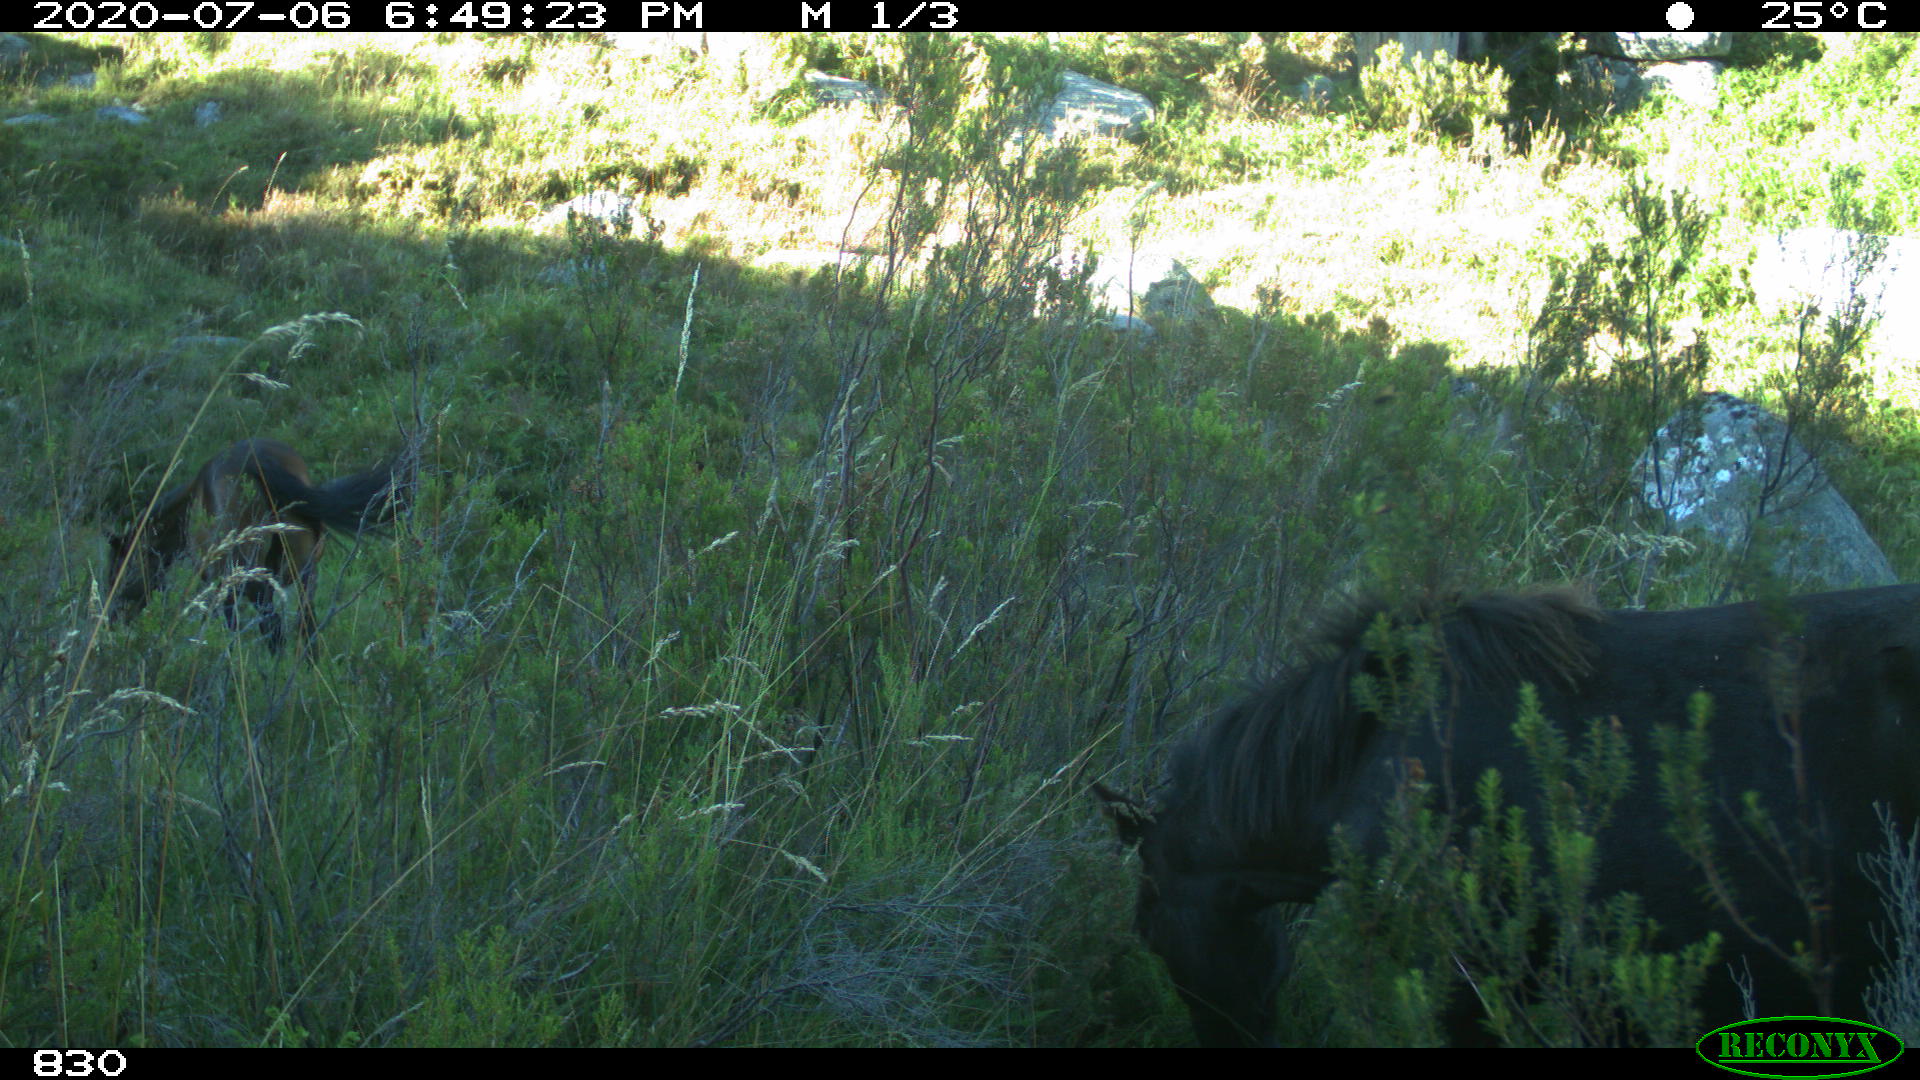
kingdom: Animalia
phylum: Chordata
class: Mammalia
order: Perissodactyla
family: Equidae
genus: Equus
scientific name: Equus caballus
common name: Horse
